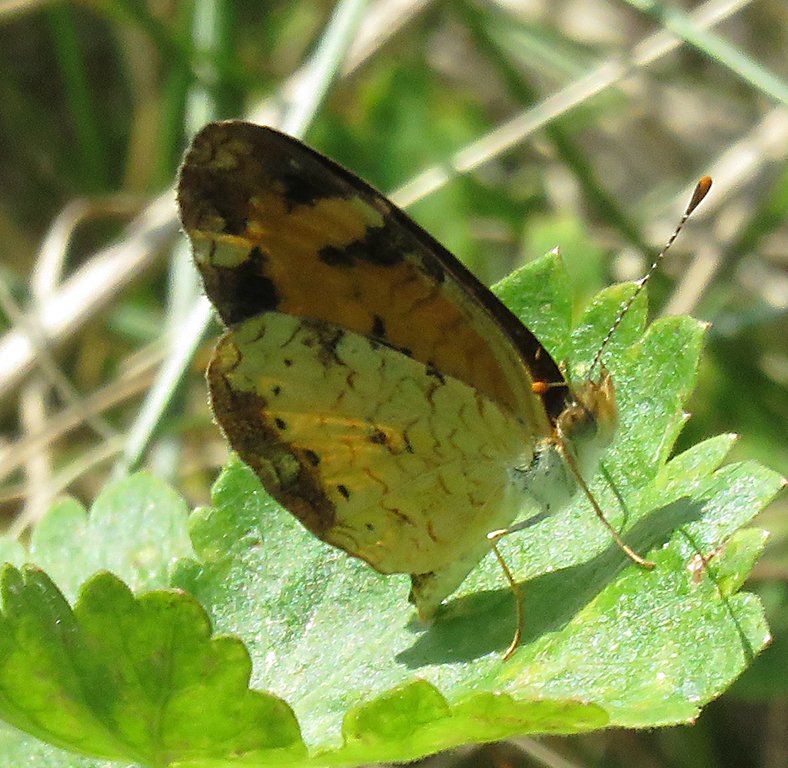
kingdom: Animalia
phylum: Arthropoda
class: Insecta
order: Lepidoptera
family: Nymphalidae
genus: Phyciodes
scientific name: Phyciodes tharos
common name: Northern Crescent
